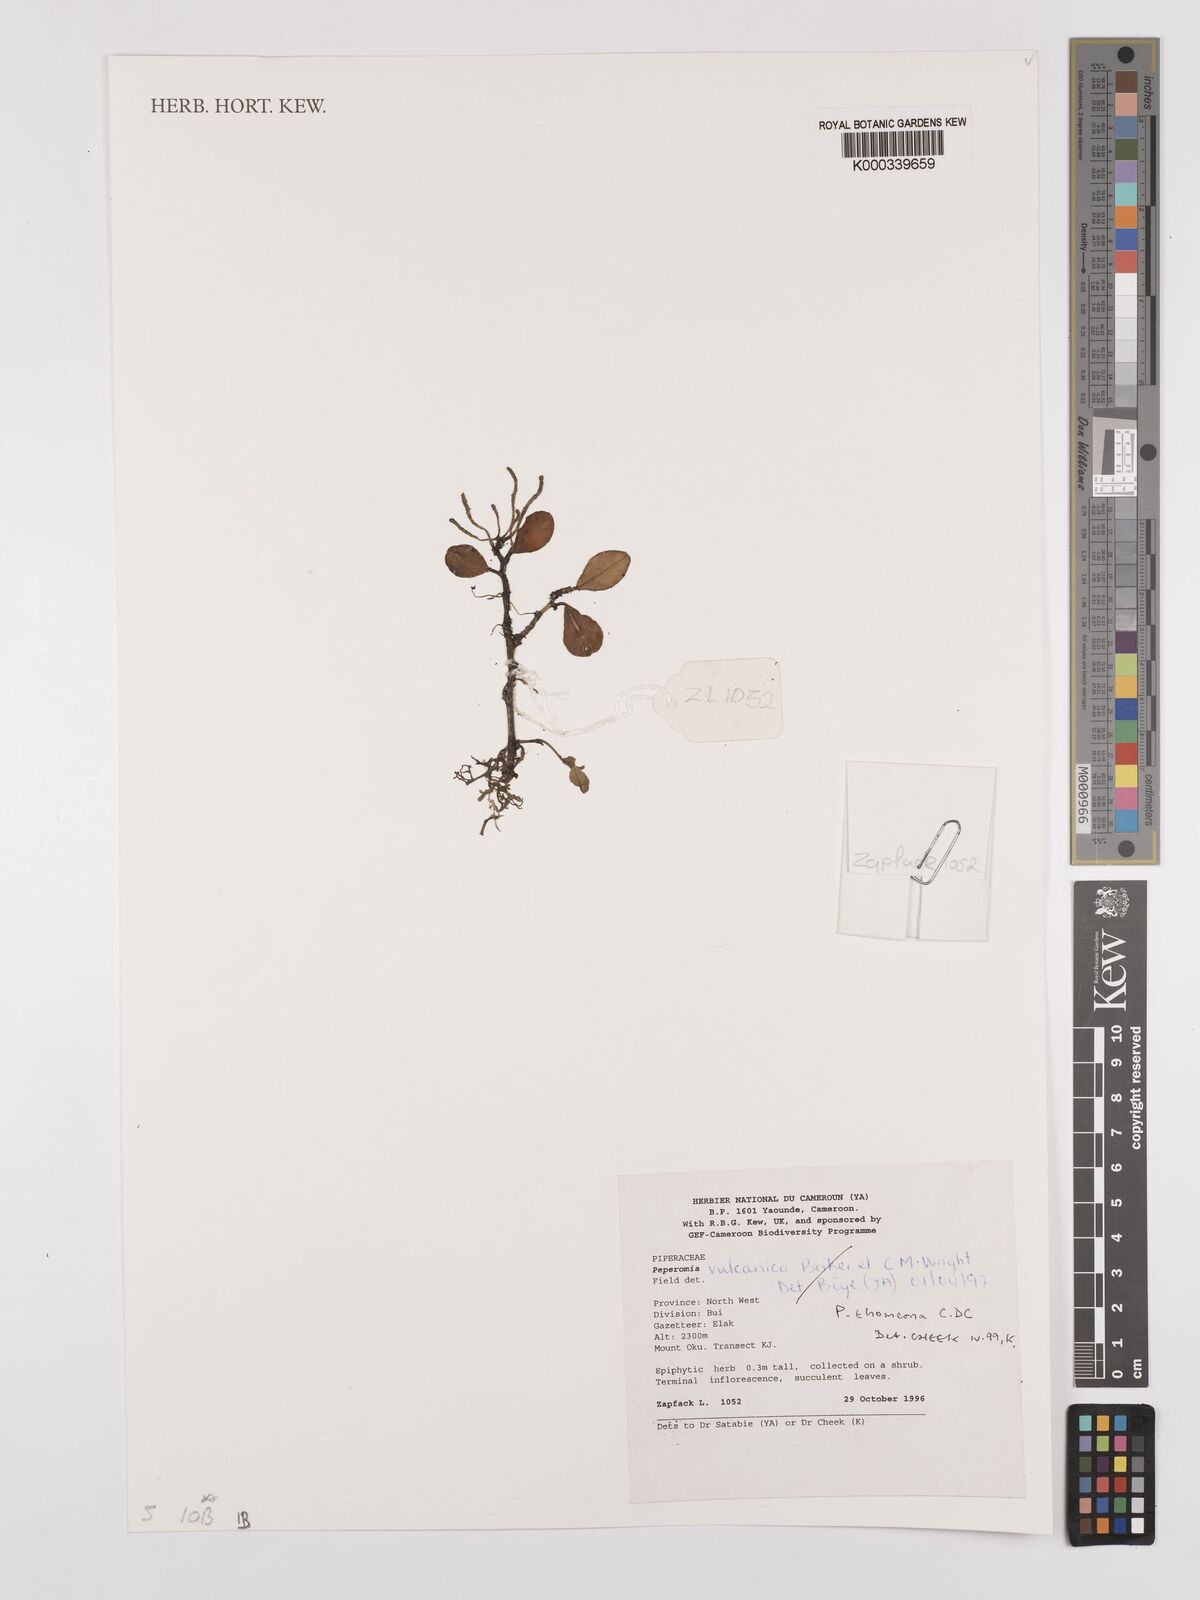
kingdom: Plantae
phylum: Tracheophyta
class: Magnoliopsida
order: Piperales
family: Piperaceae
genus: Peperomia
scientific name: Peperomia thomeana
